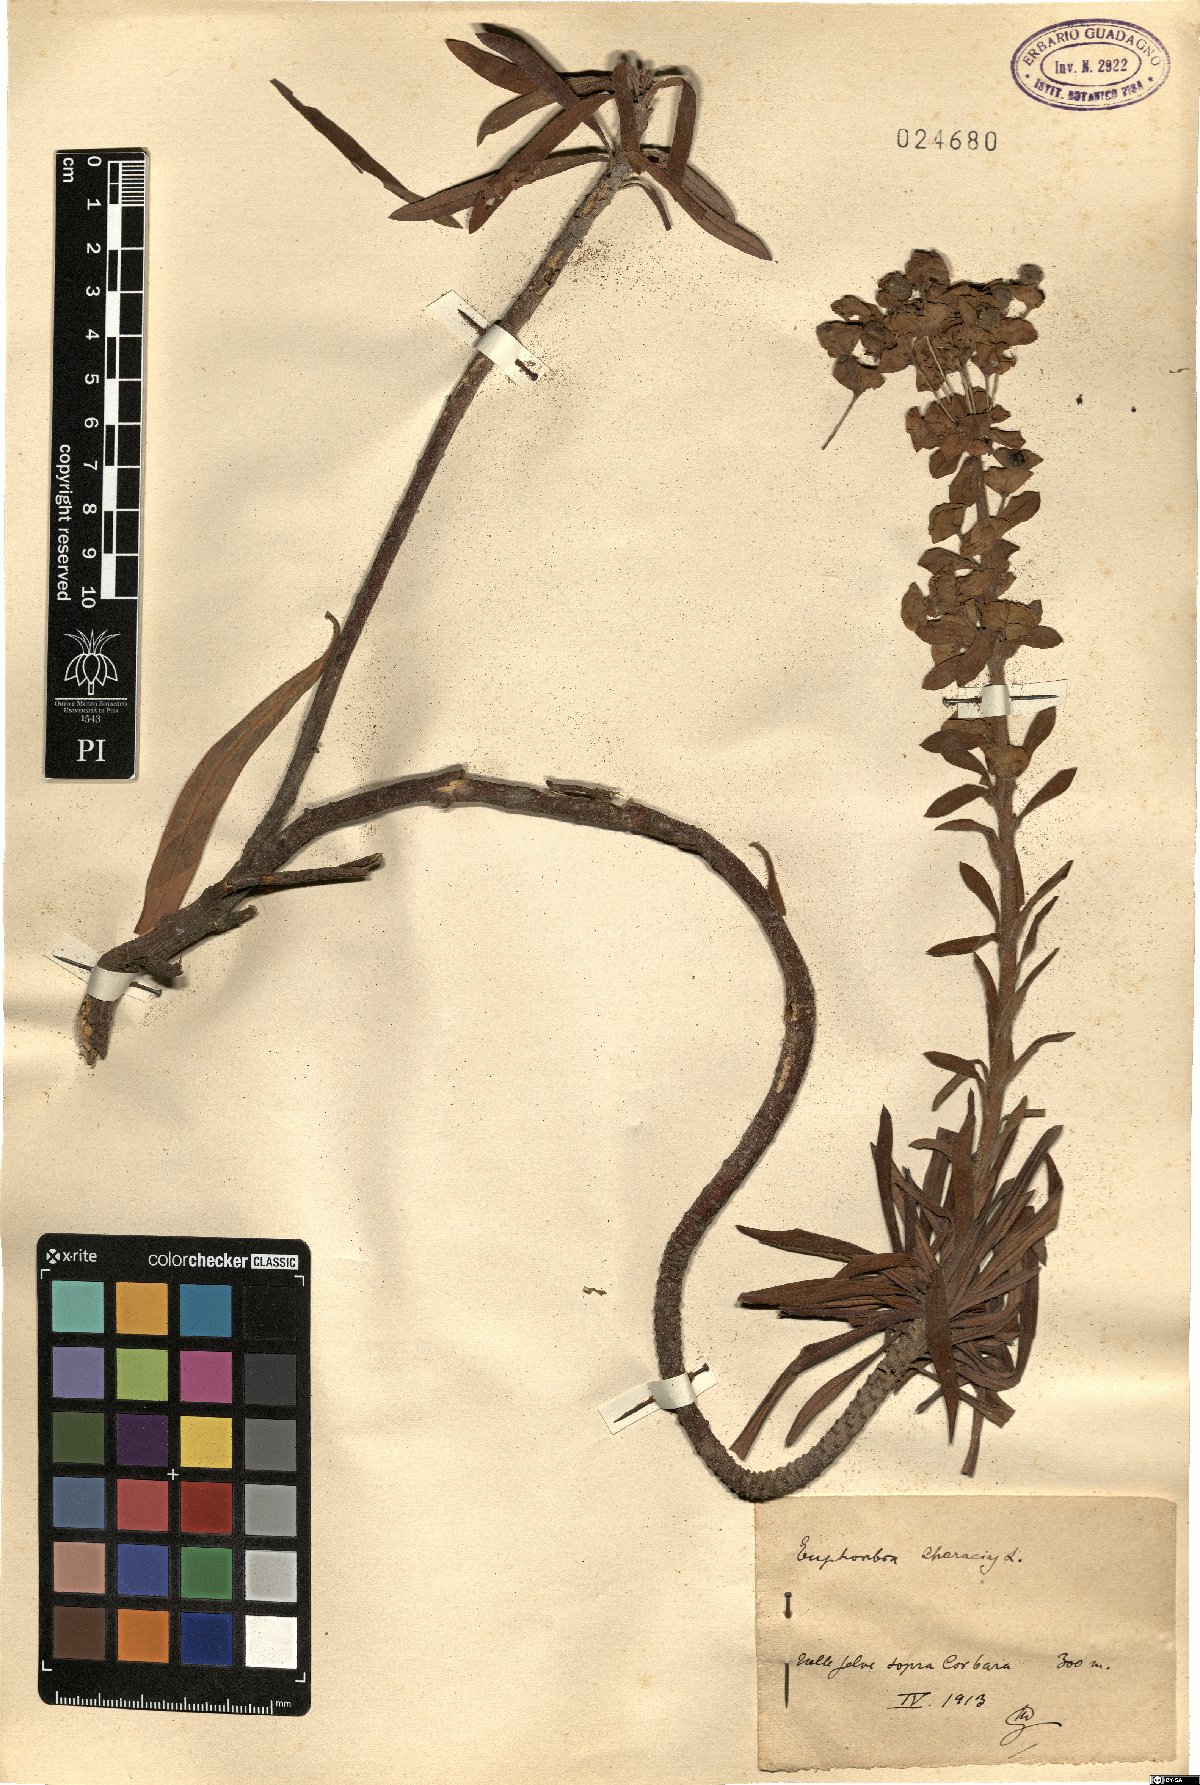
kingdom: Plantae
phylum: Tracheophyta
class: Magnoliopsida
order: Malpighiales
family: Euphorbiaceae
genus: Euphorbia
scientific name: Euphorbia characias
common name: Mediterranean spurge
